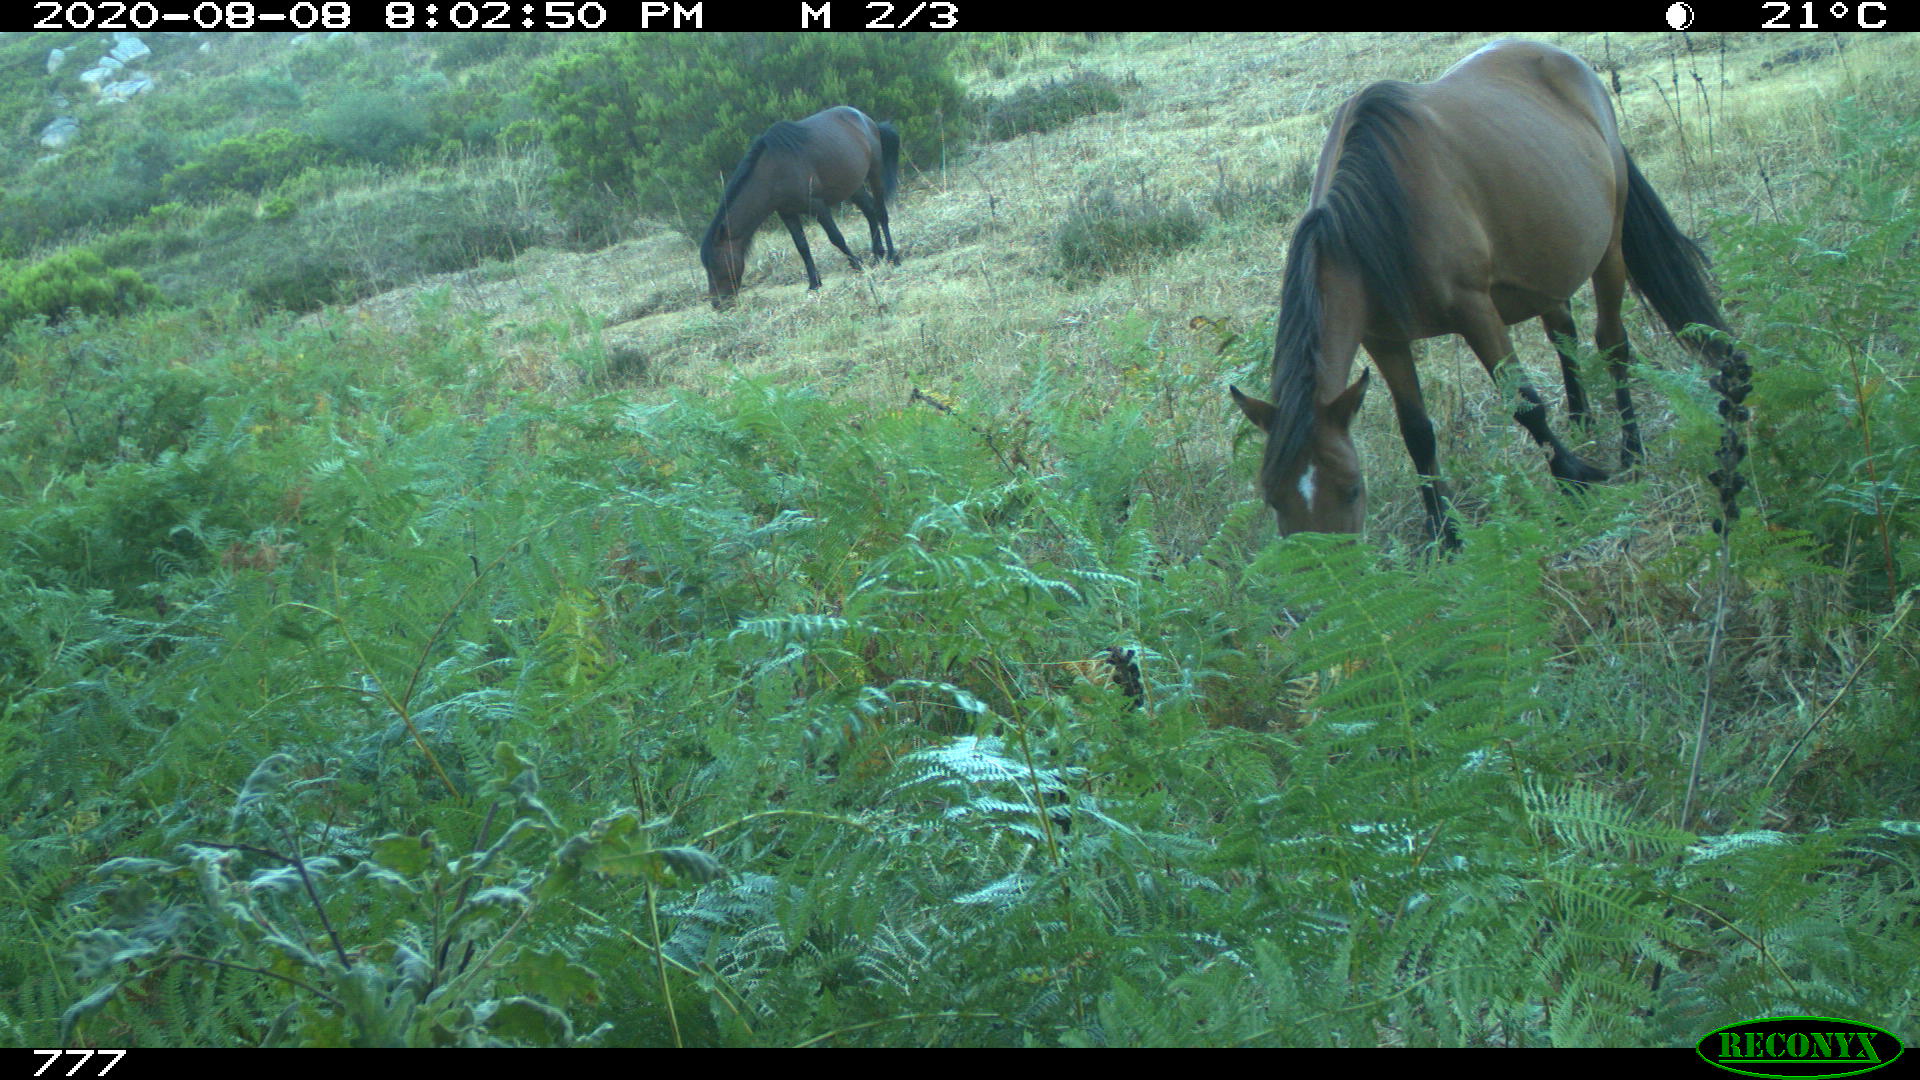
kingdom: Animalia
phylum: Chordata
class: Mammalia
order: Perissodactyla
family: Equidae
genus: Equus
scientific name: Equus caballus
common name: Horse
